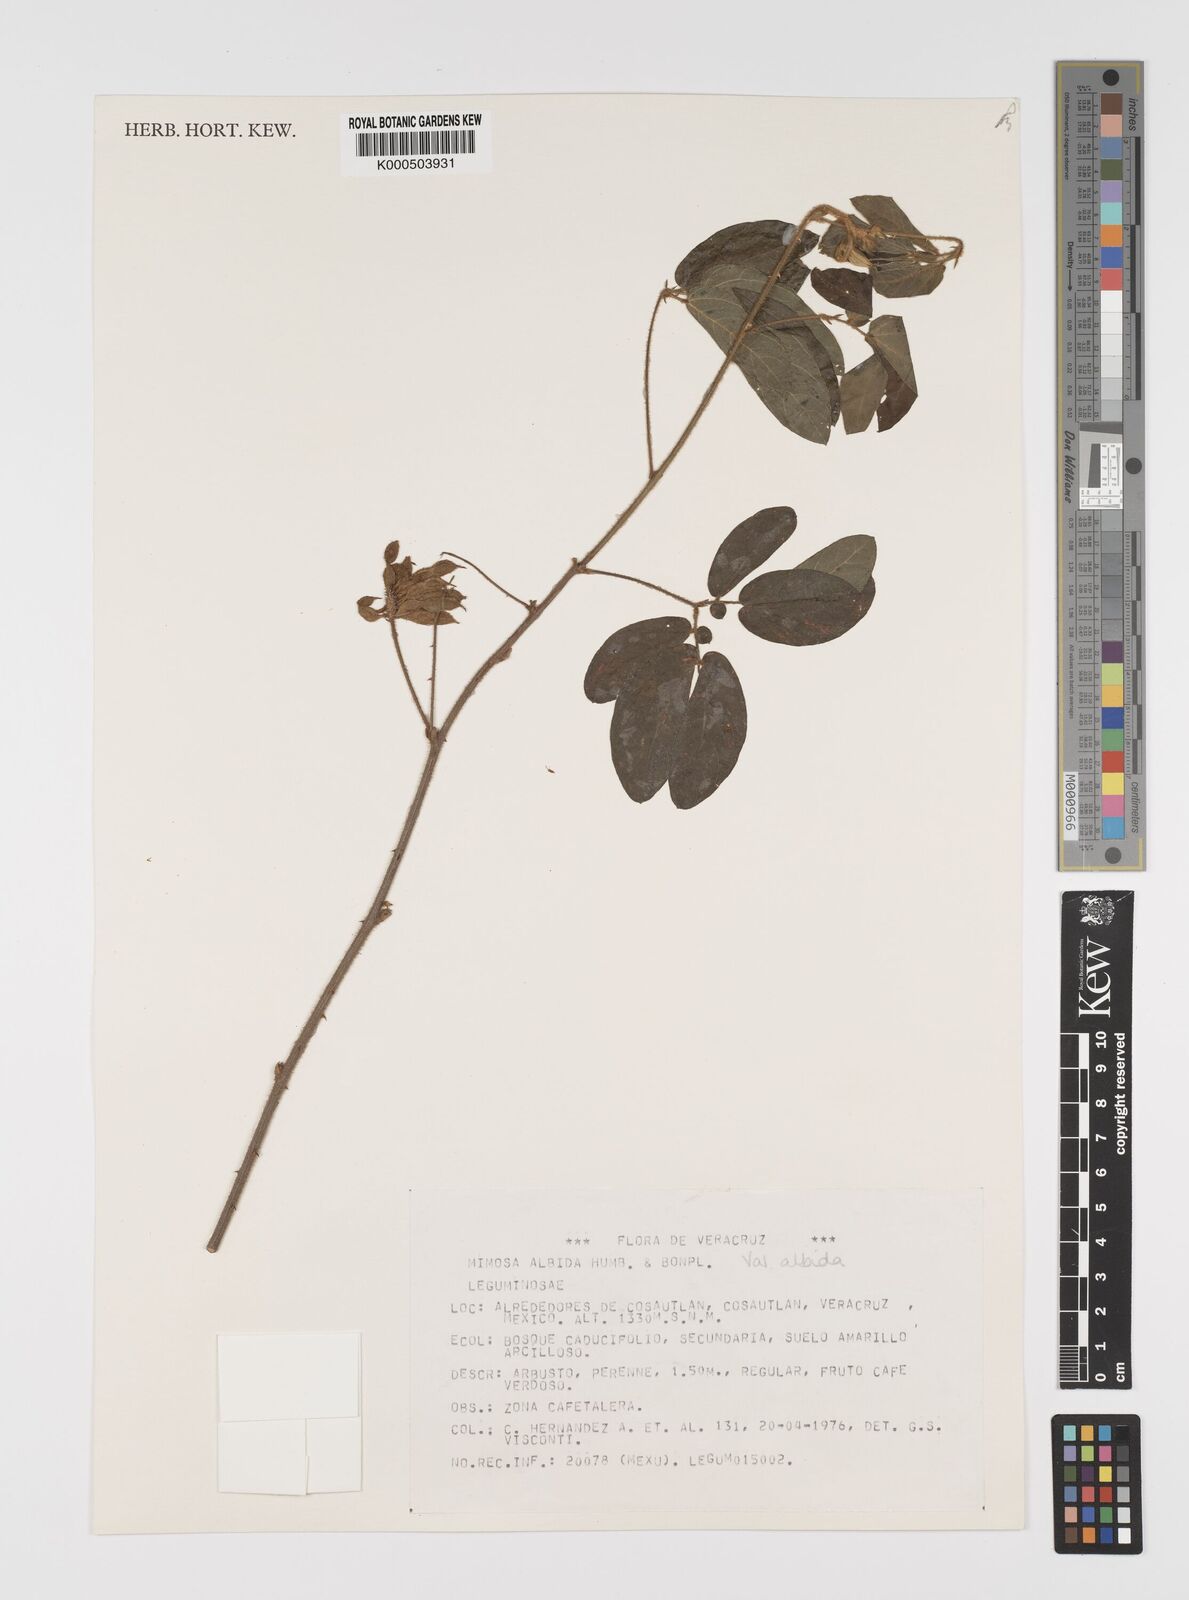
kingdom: Plantae
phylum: Tracheophyta
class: Magnoliopsida
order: Fabales
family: Fabaceae
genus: Mimosa
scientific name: Mimosa albida
